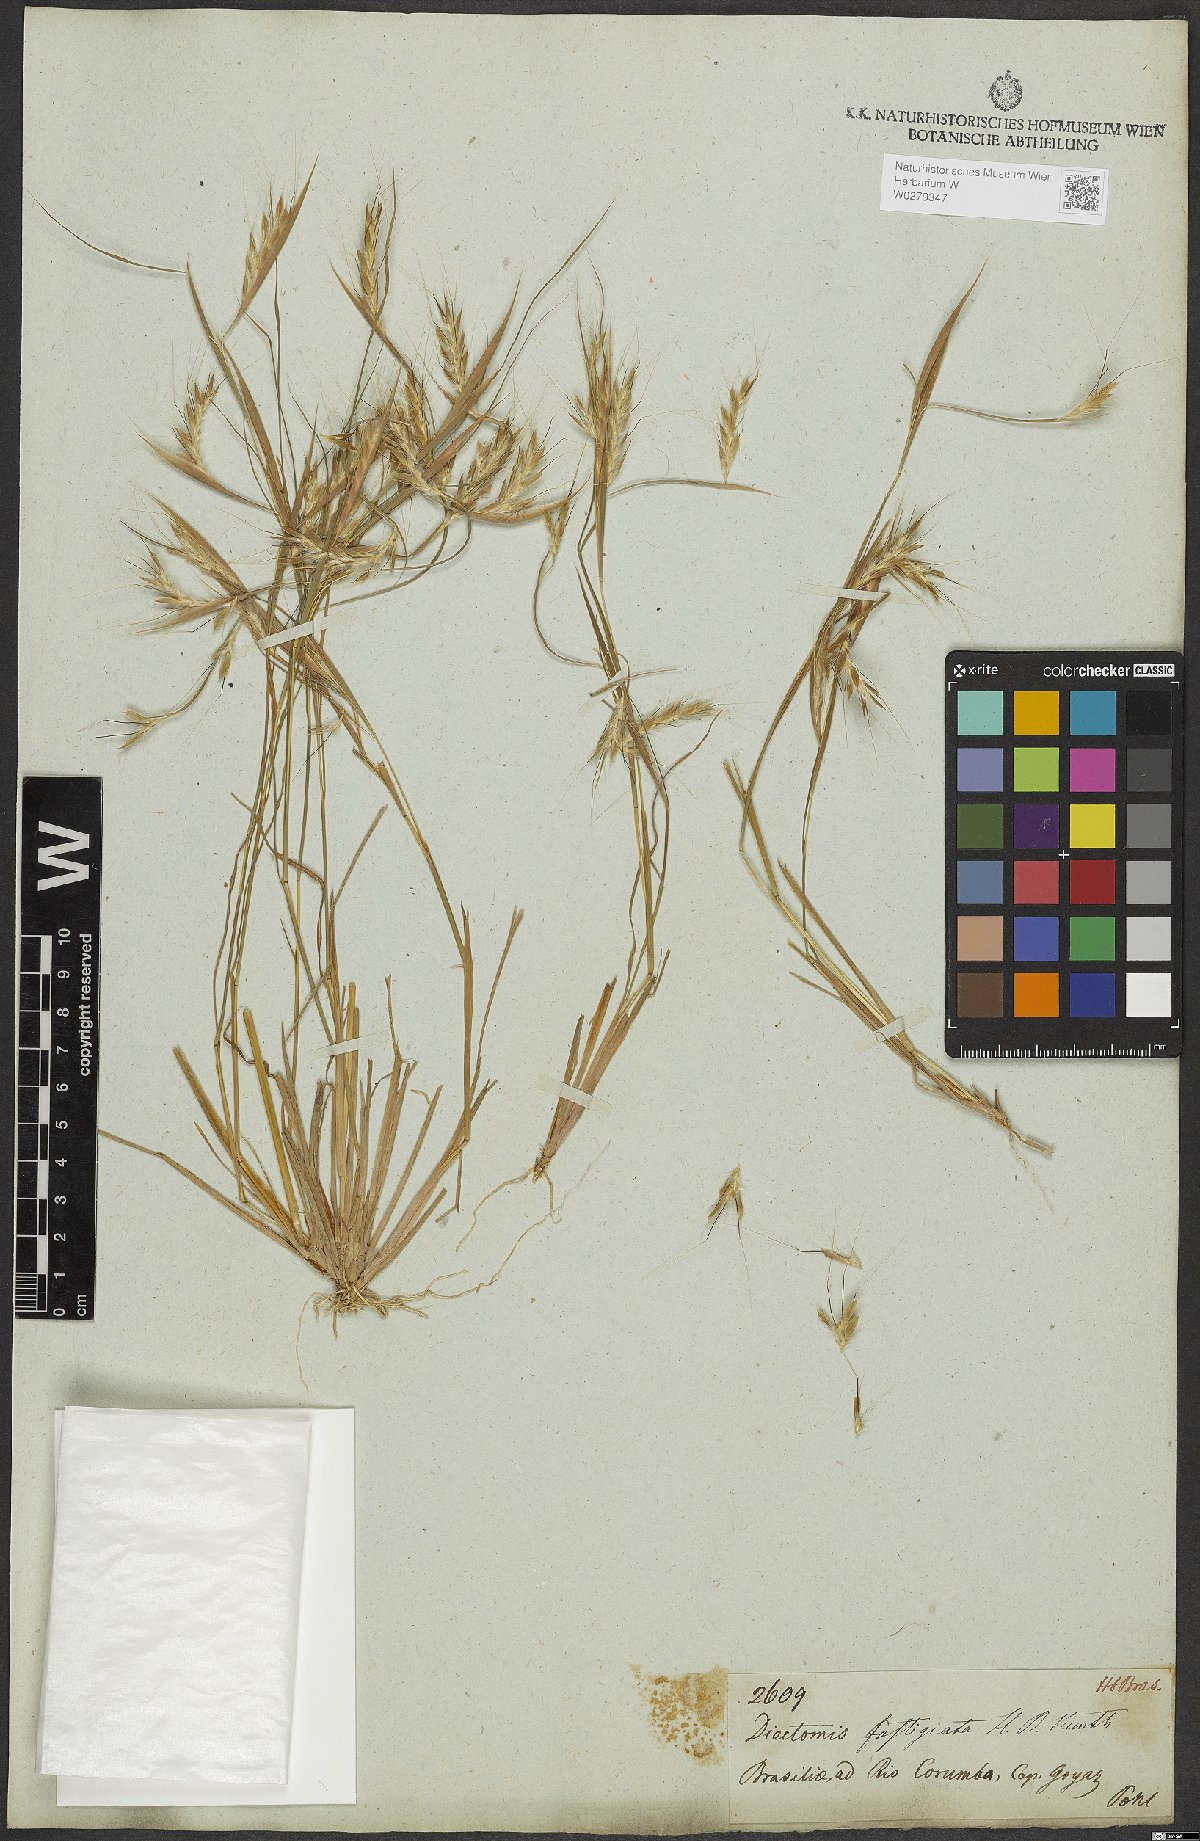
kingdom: Plantae
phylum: Tracheophyta
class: Liliopsida
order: Poales
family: Poaceae
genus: Diectomis
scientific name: Diectomis fastigiata
